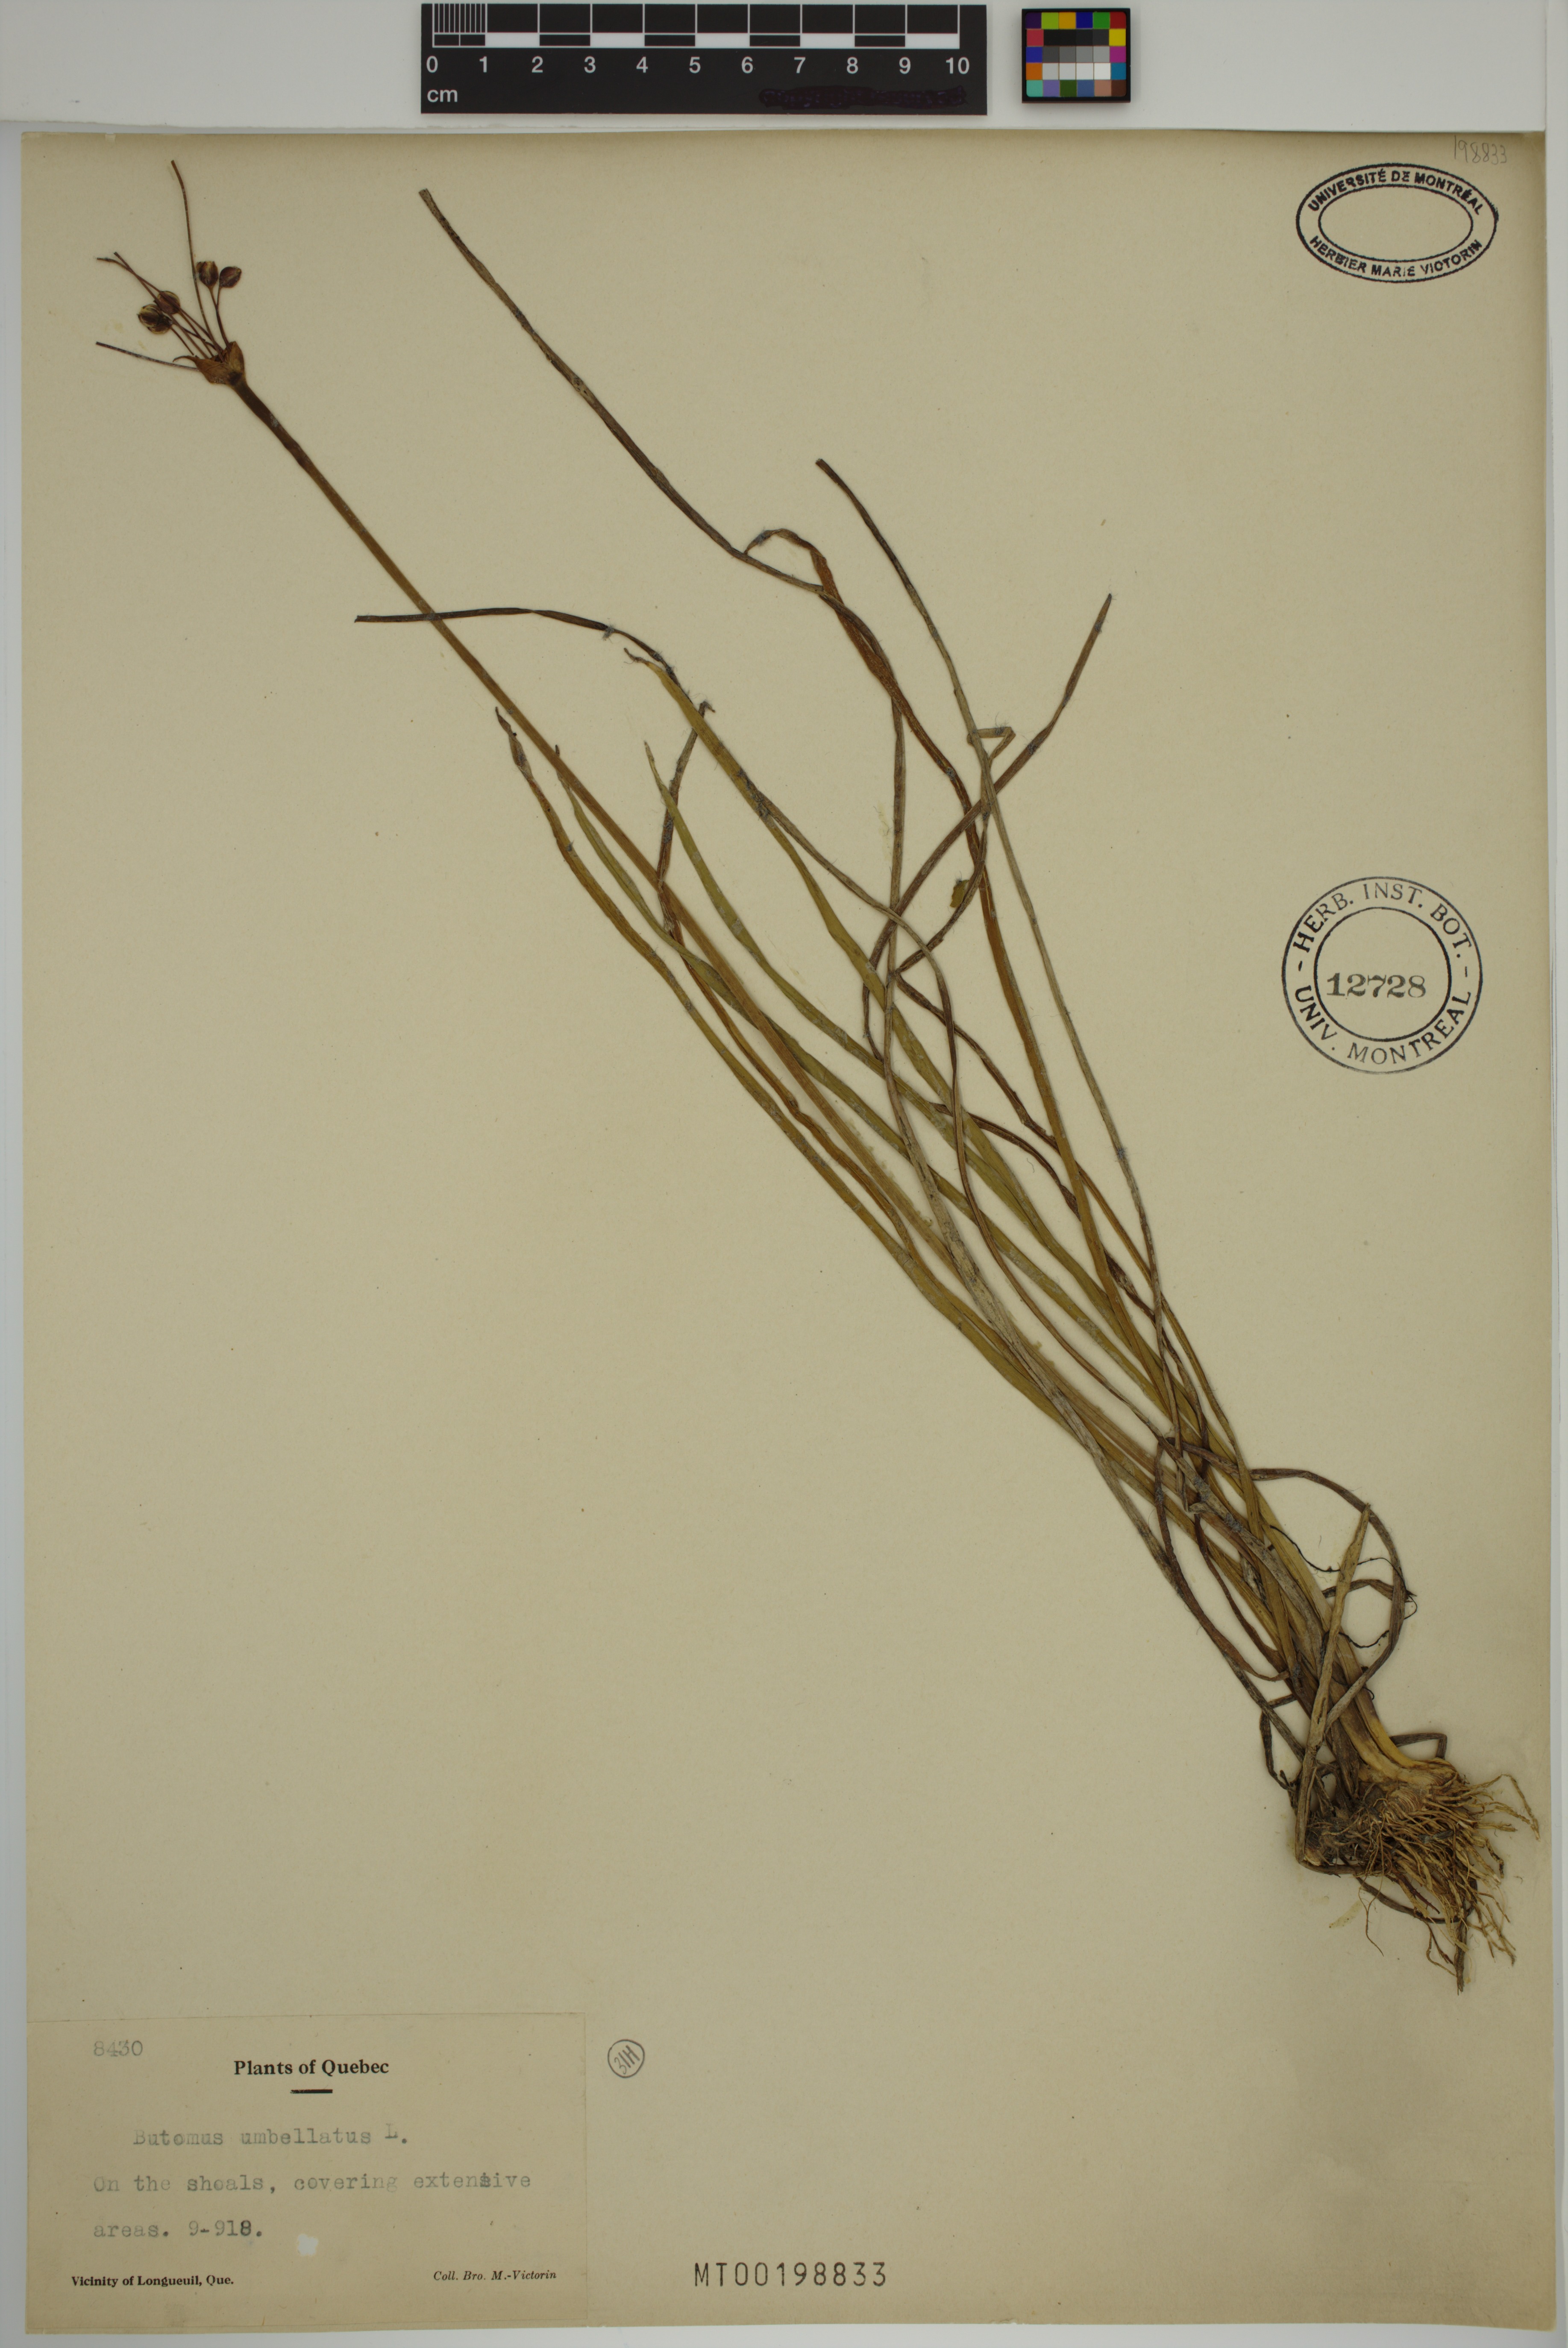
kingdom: Plantae
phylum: Tracheophyta
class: Liliopsida
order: Alismatales
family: Butomaceae
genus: Butomus
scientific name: Butomus umbellatus
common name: Flowering-rush
